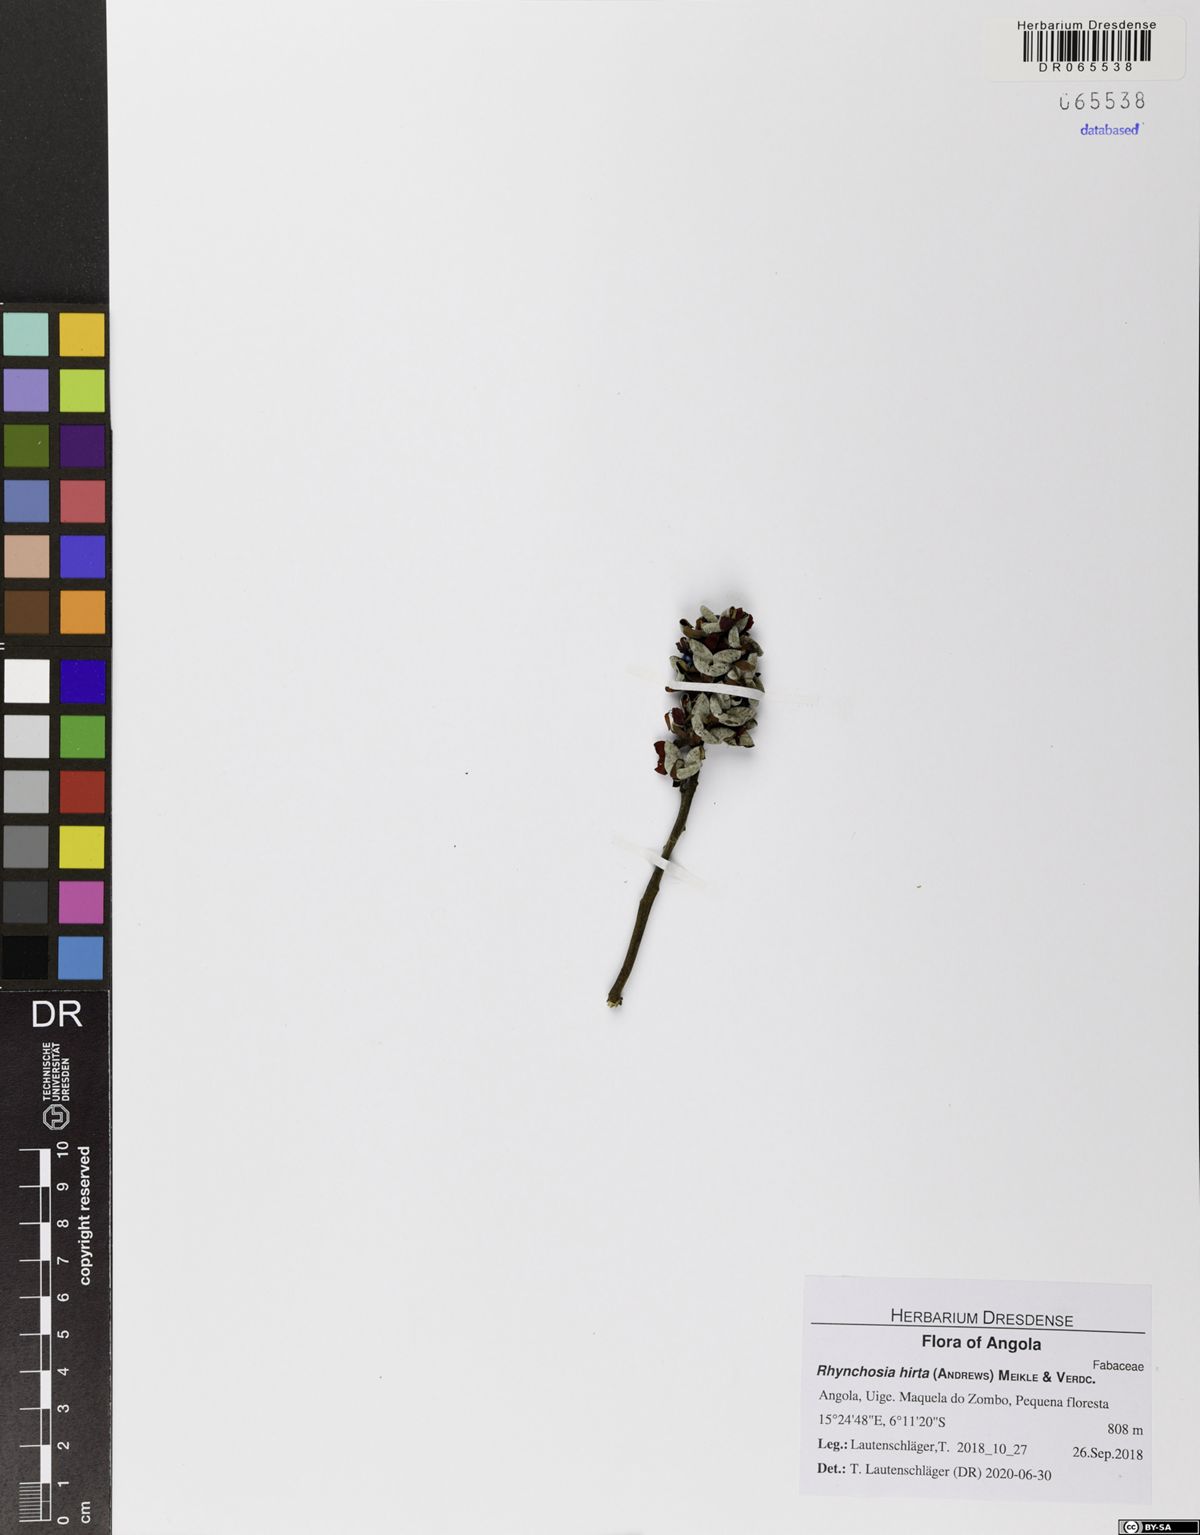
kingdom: Plantae
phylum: Tracheophyta
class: Magnoliopsida
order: Fabales
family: Fabaceae
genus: Rhynchosia
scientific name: Rhynchosia hirta
